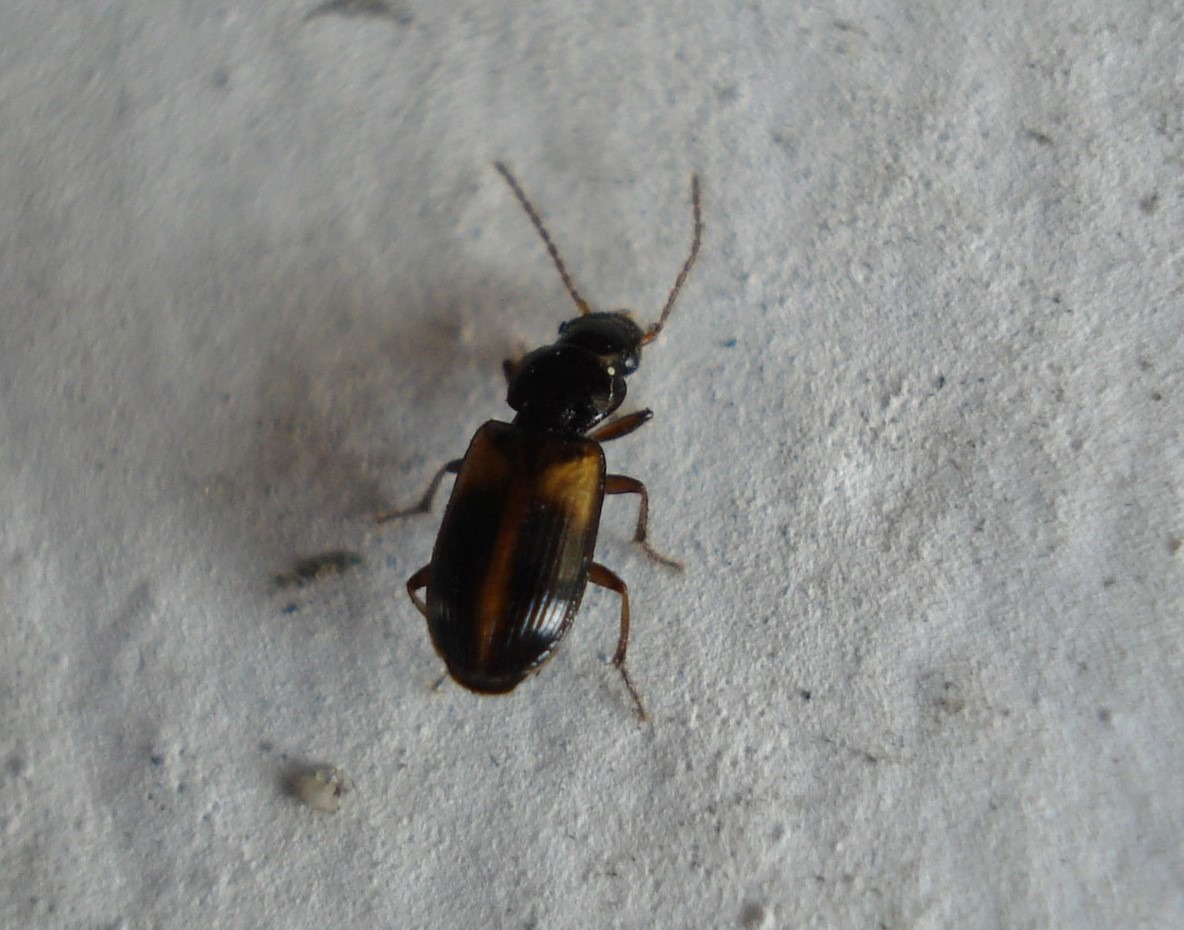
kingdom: Animalia
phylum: Arthropoda
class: Insecta
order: Coleoptera
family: Carabidae
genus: Acupalpus
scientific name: Acupalpus meridianus
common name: Almindelig moseløber
